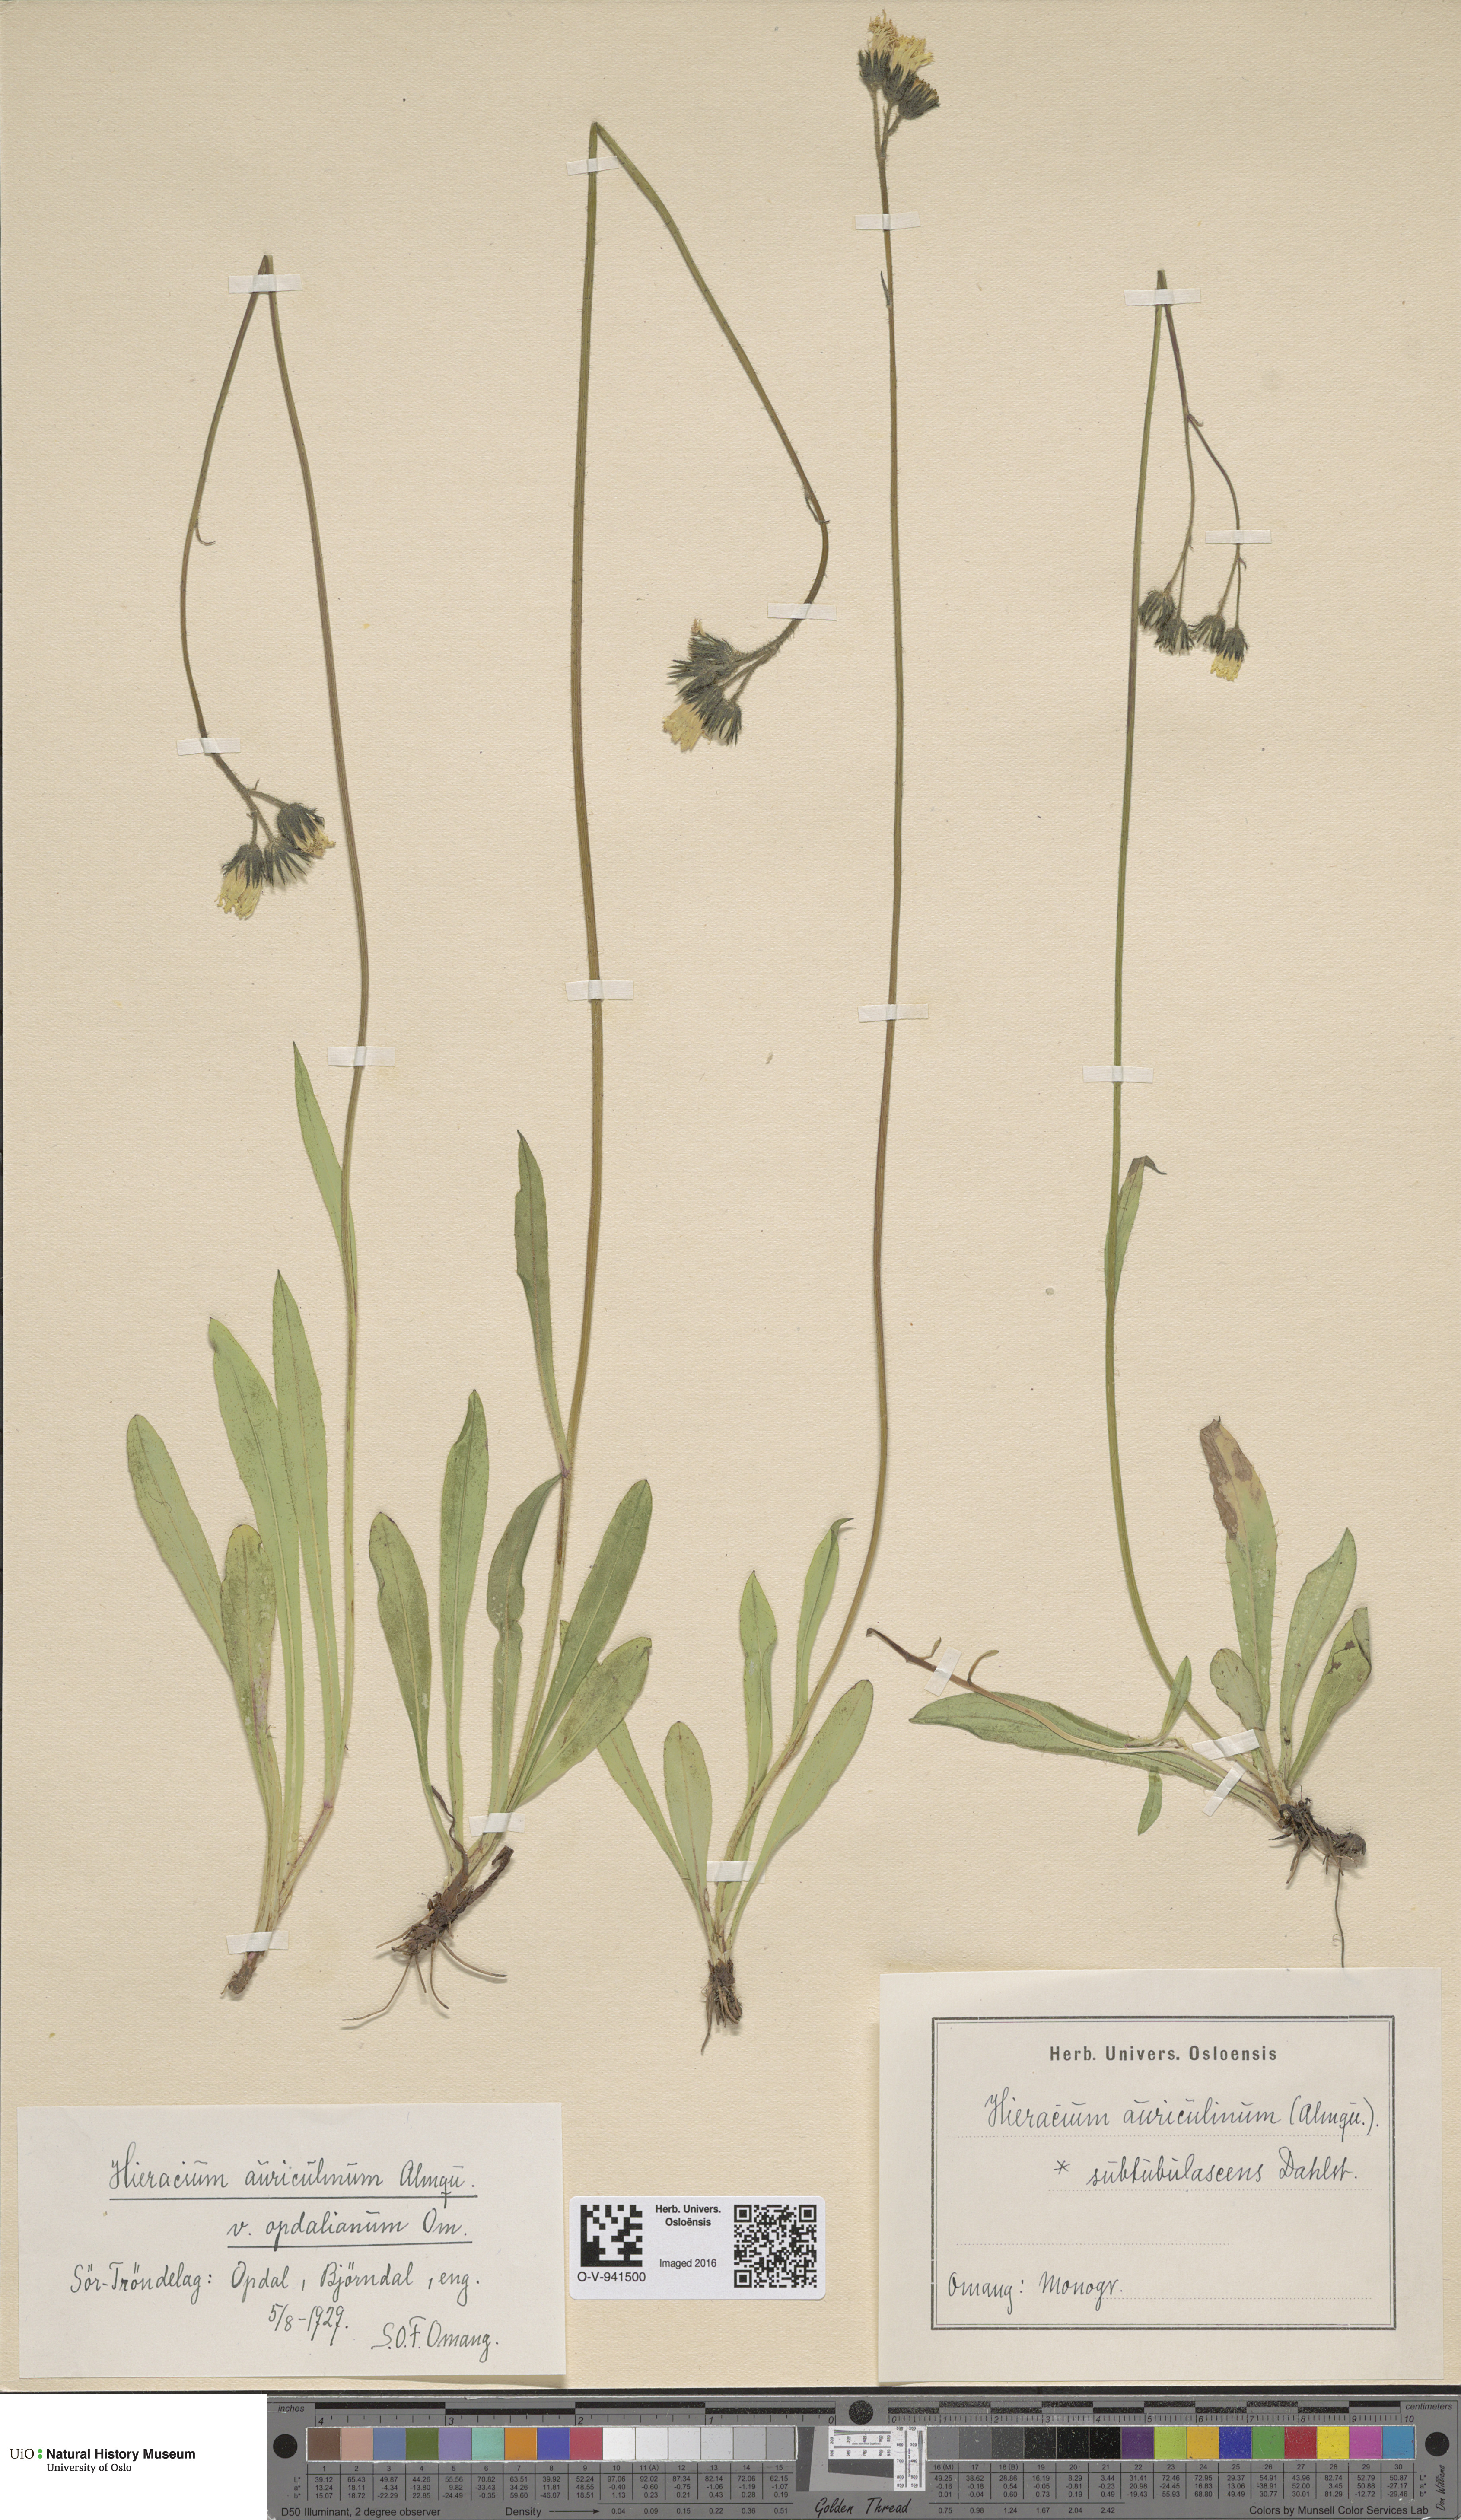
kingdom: Plantae
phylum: Tracheophyta
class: Magnoliopsida
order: Asterales
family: Asteraceae
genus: Pilosella
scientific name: Pilosella dubia
